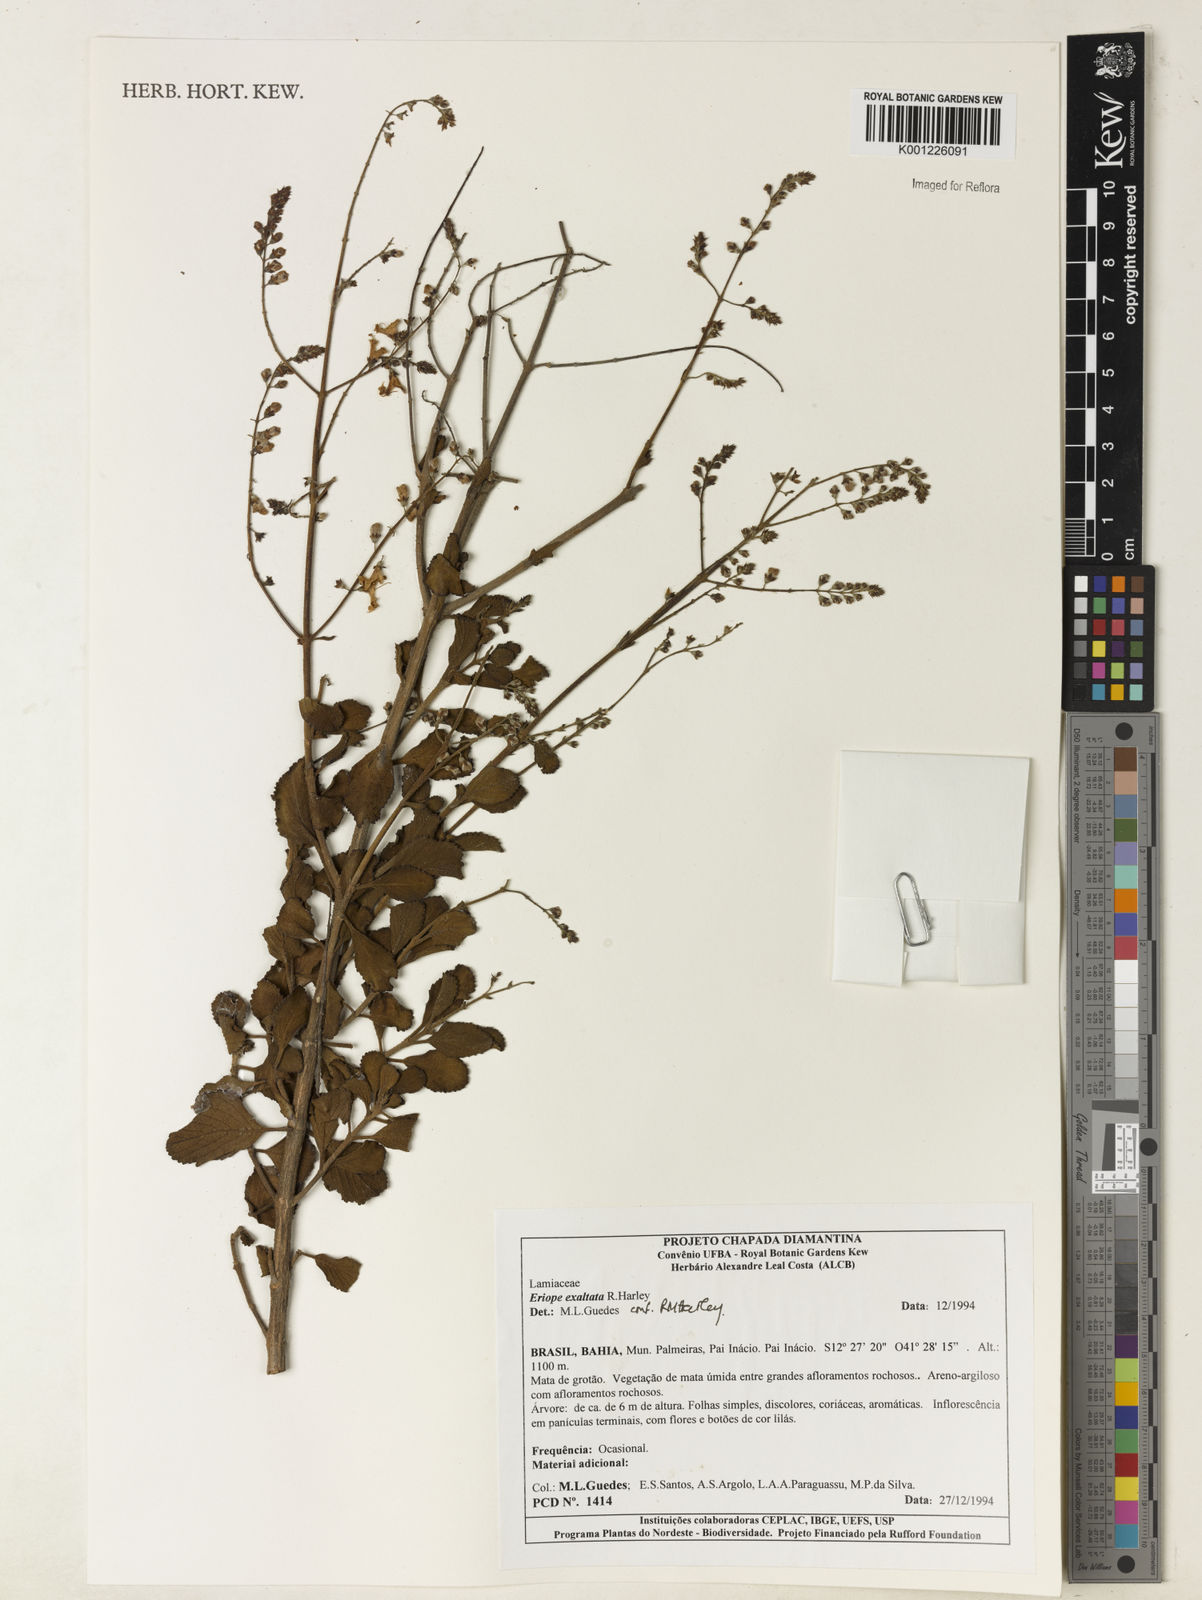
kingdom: Plantae
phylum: Tracheophyta
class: Magnoliopsida
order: Lamiales
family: Lamiaceae
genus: Eriope
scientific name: Eriope exaltata
